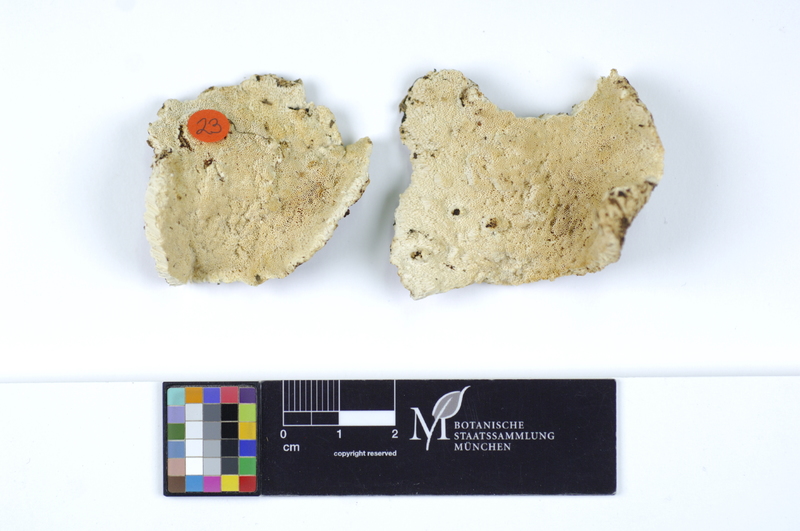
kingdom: Fungi
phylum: Basidiomycota
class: Agaricomycetes
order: Polyporales
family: Gelatoporiaceae
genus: Cinereomyces
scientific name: Cinereomyces lindbladii
